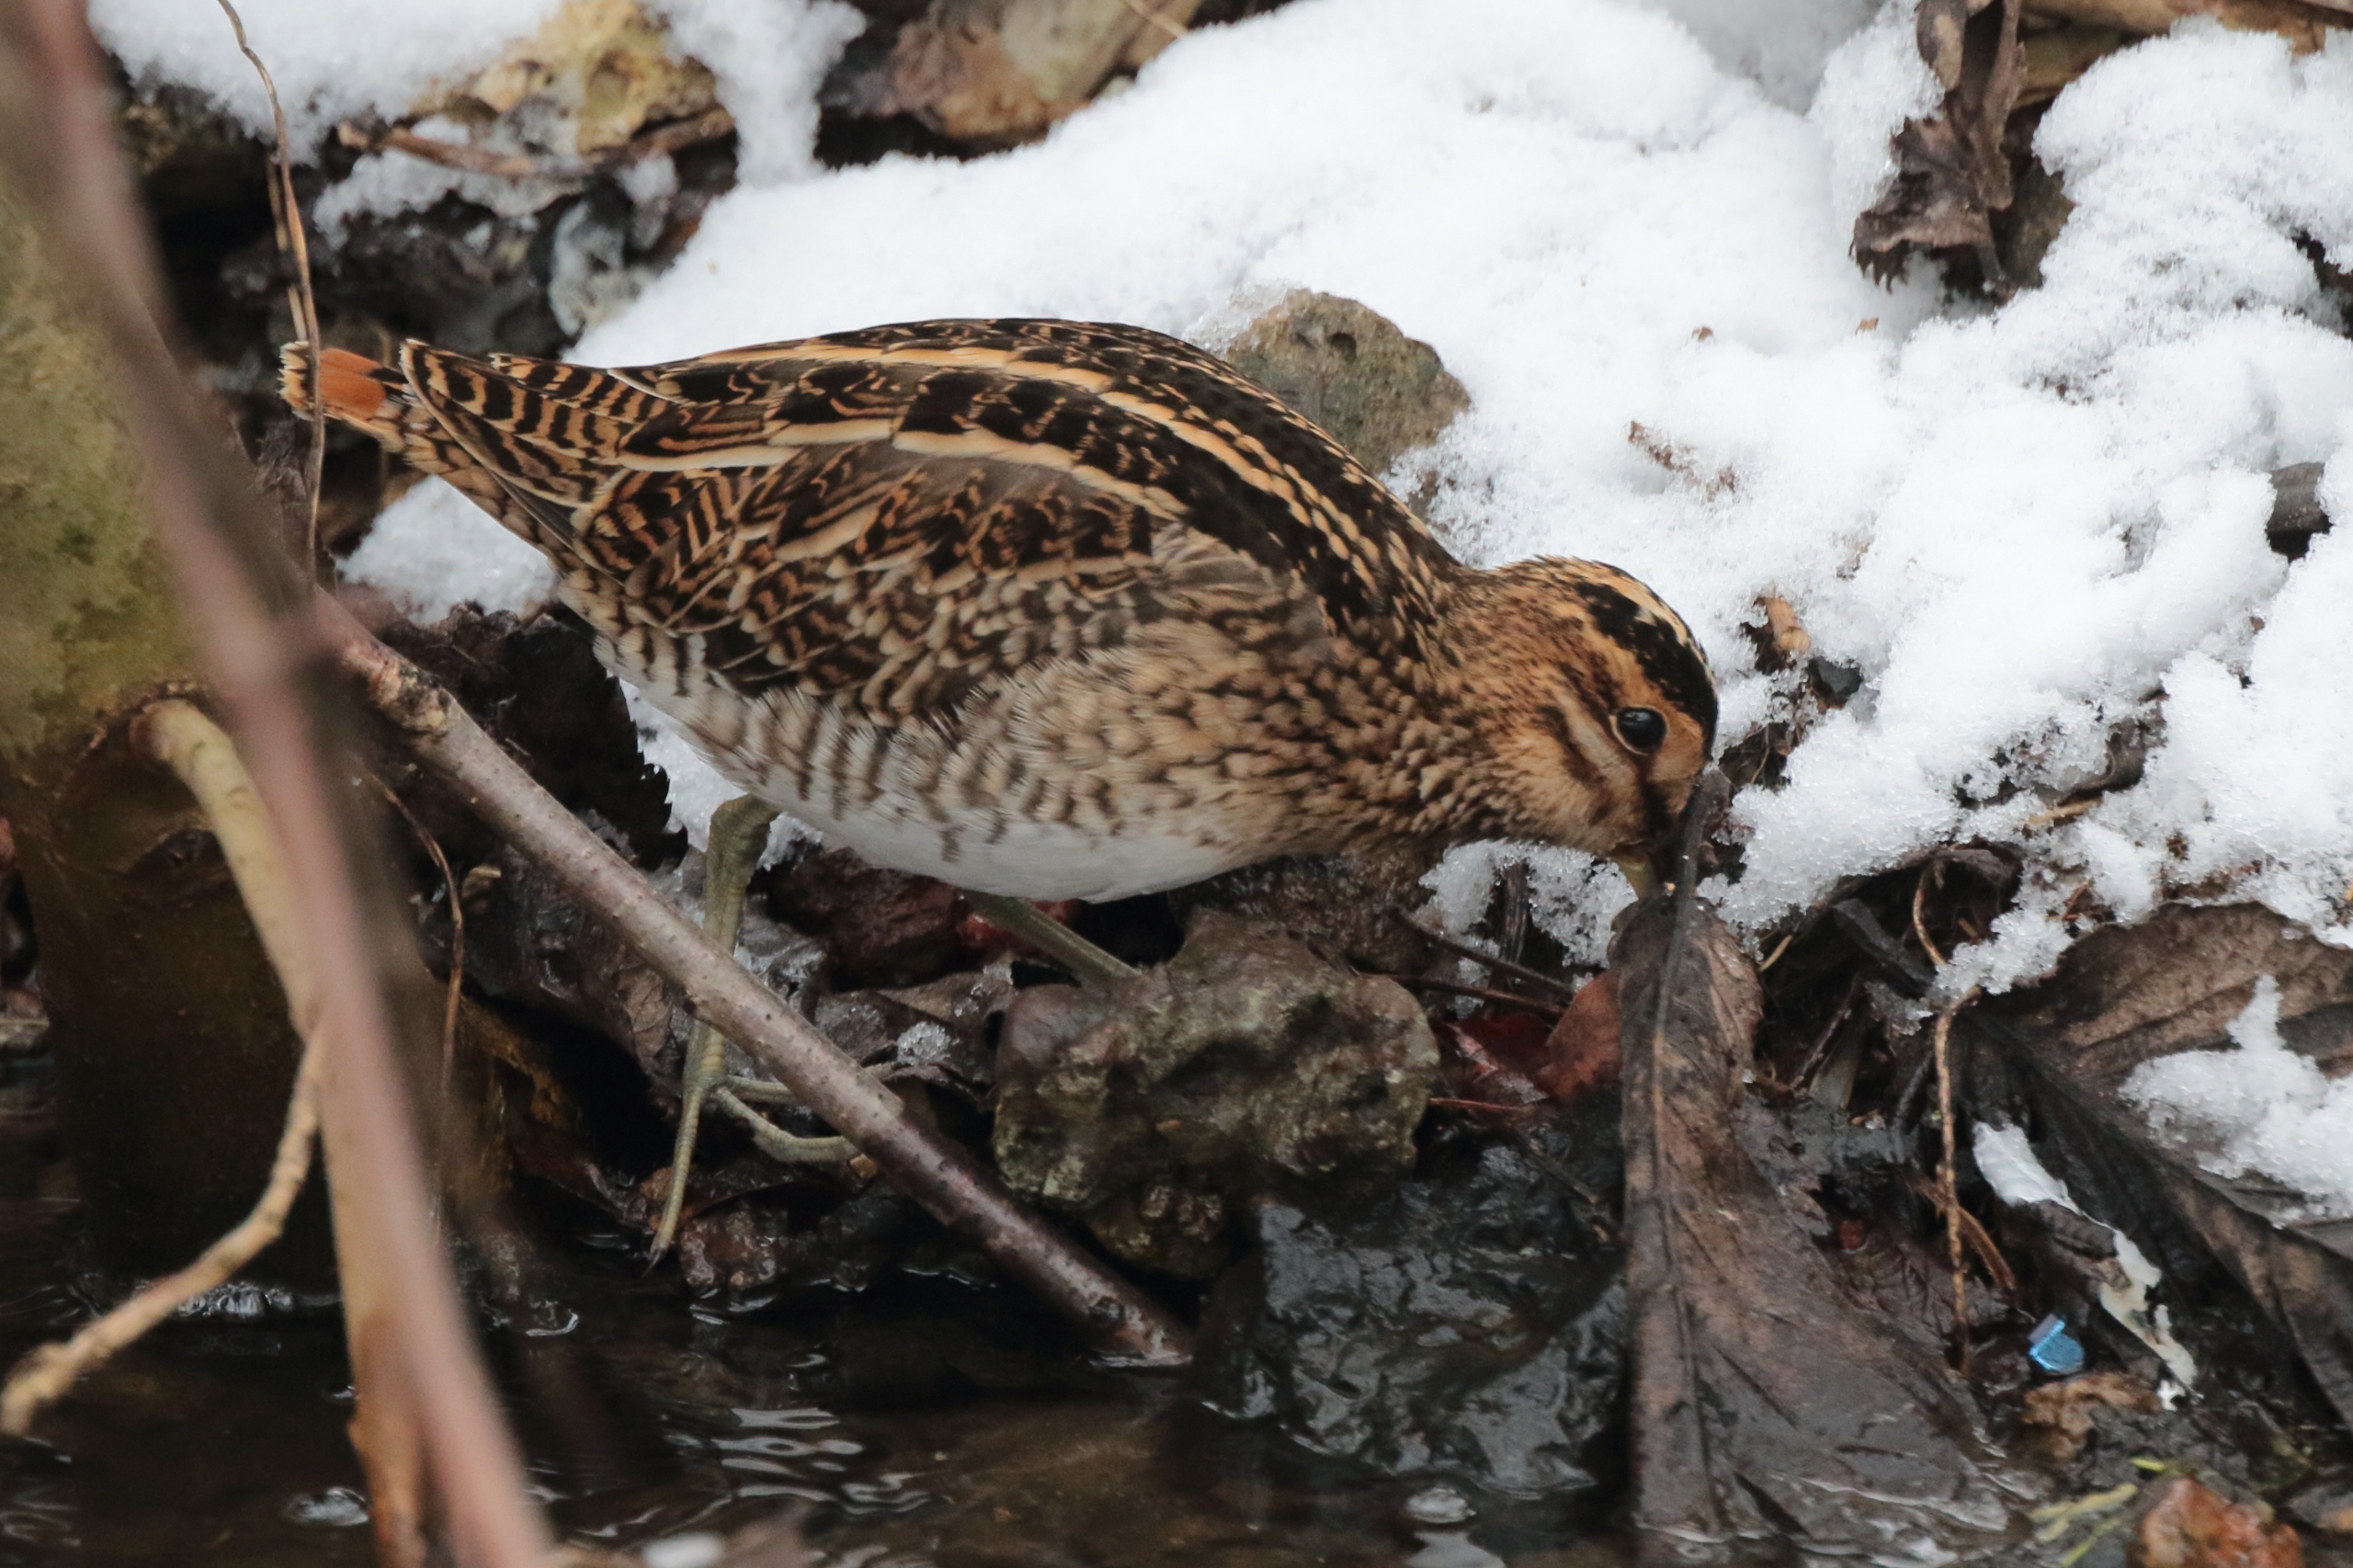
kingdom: Animalia
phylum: Chordata
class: Aves
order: Charadriiformes
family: Scolopacidae
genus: Gallinago
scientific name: Gallinago gallinago
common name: Dobbeltbekkasin
